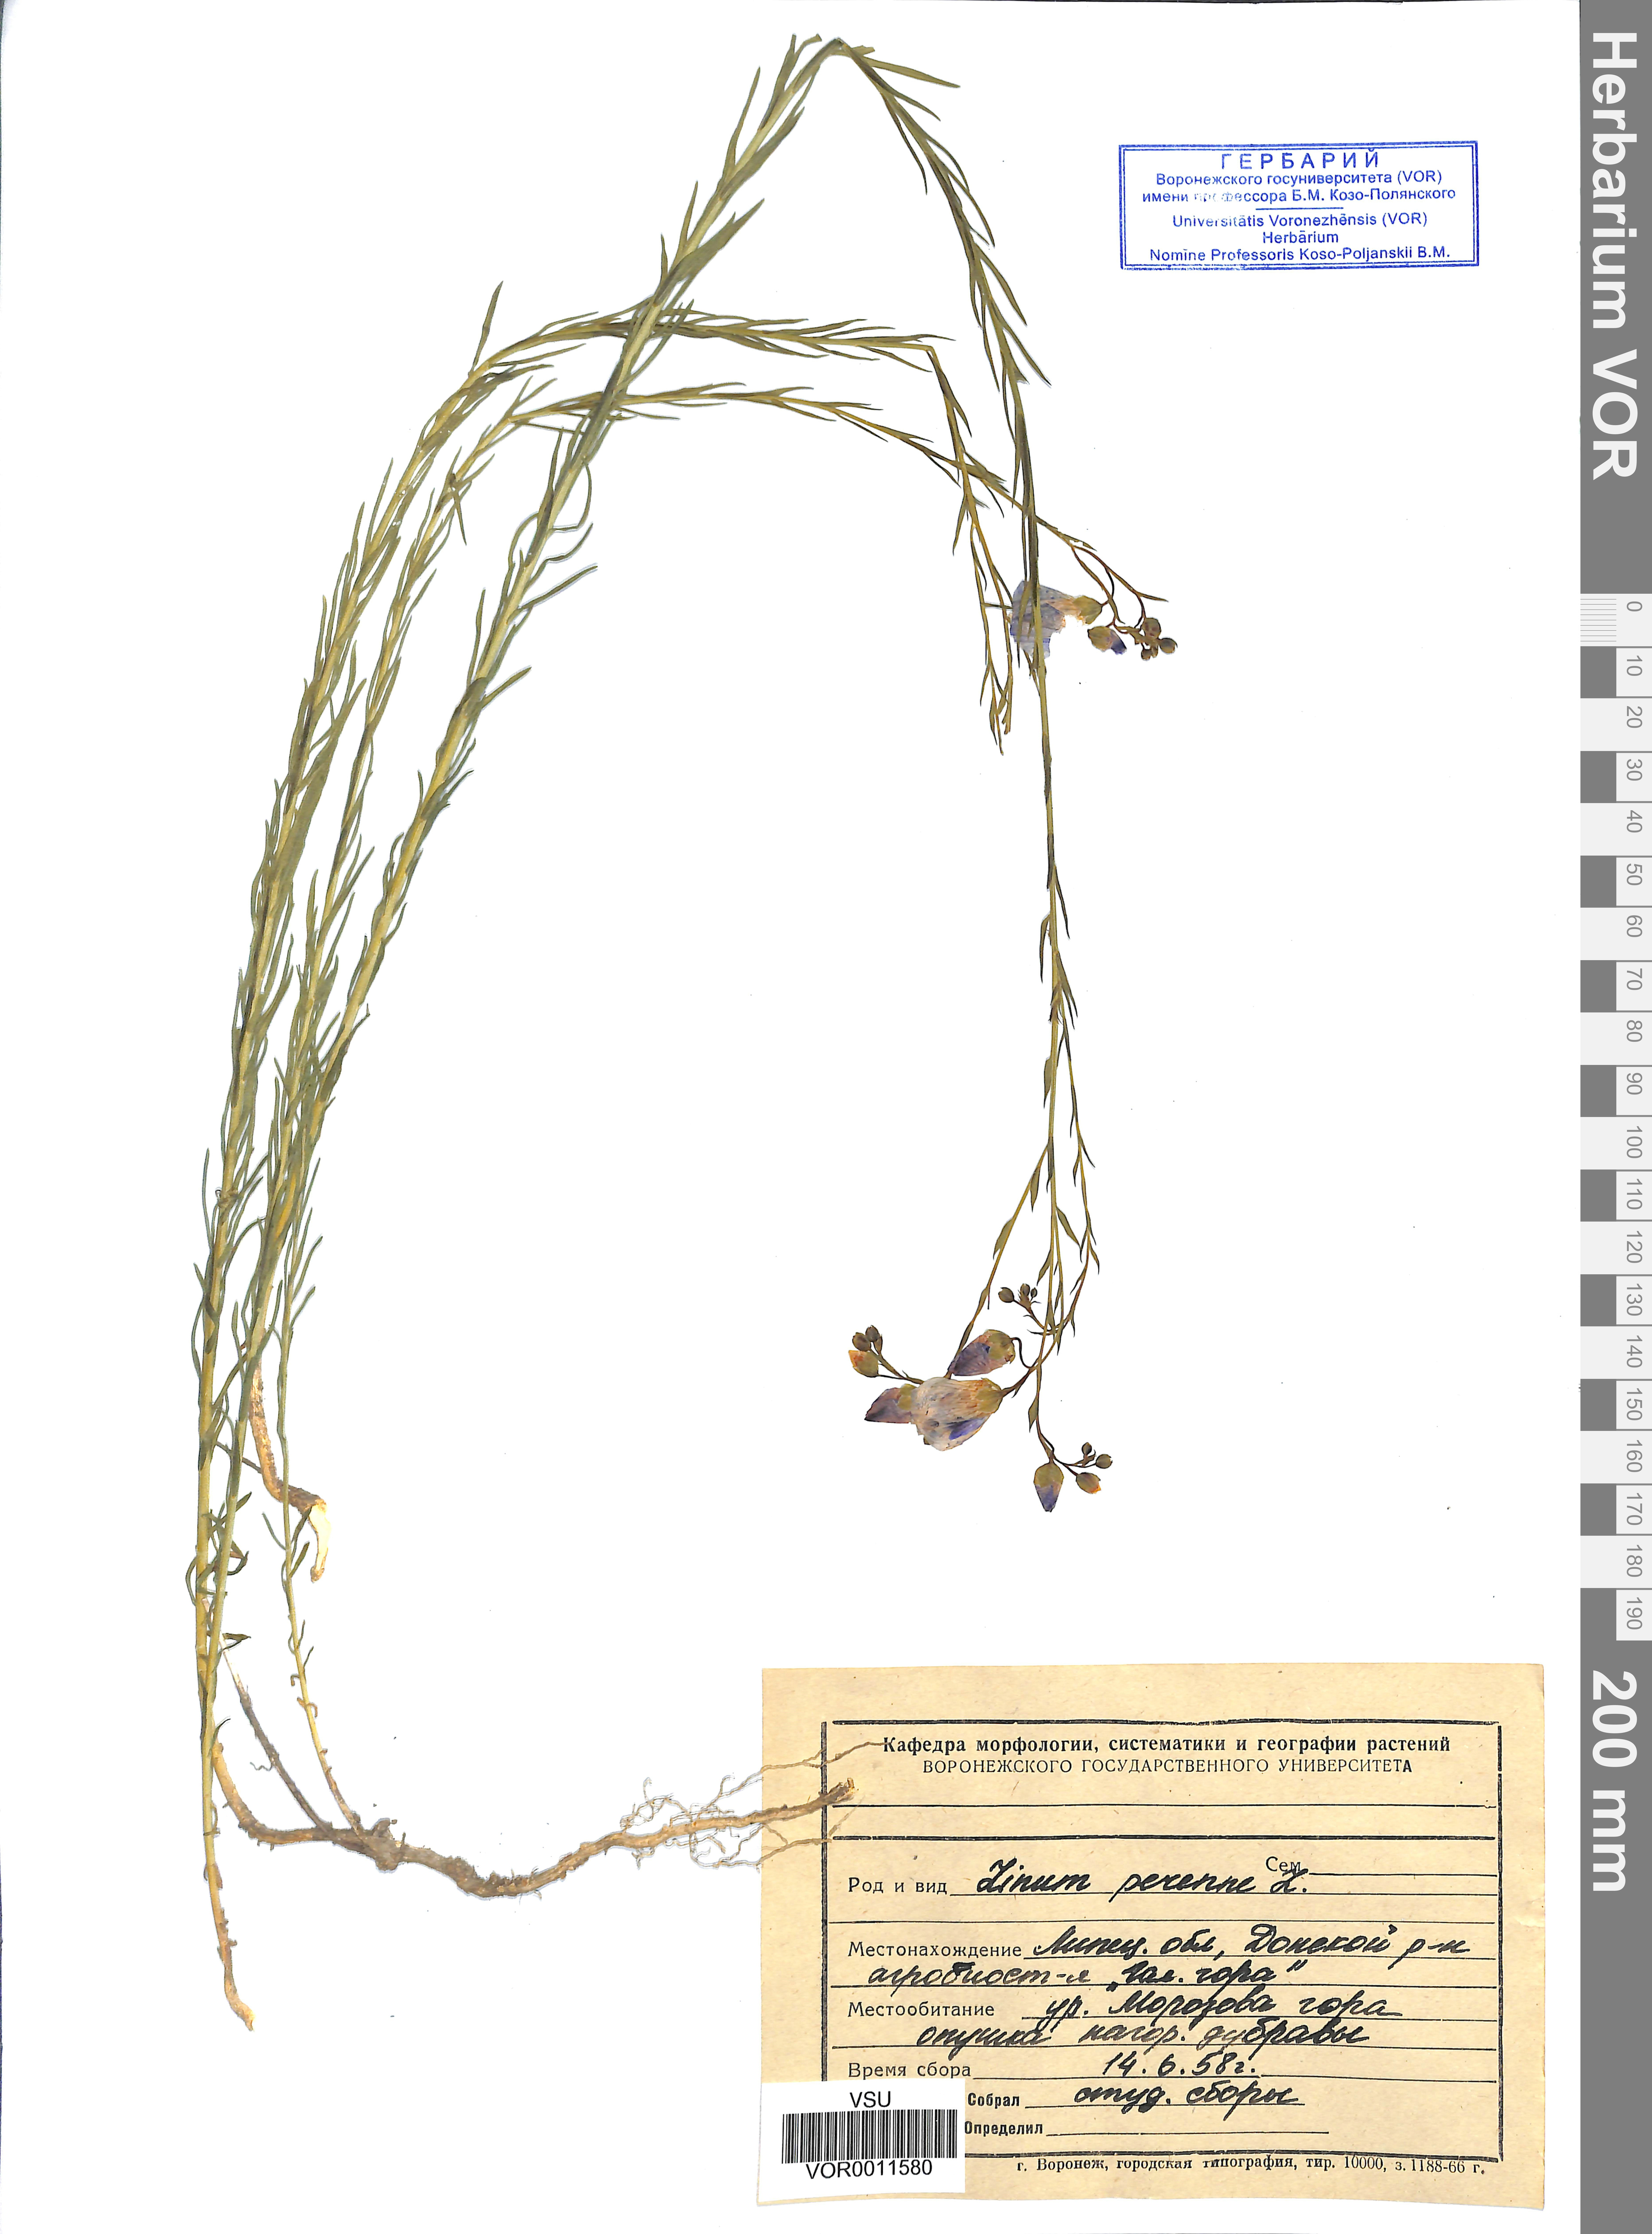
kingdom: Plantae
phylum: Tracheophyta
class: Magnoliopsida
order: Malpighiales
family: Linaceae
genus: Linum
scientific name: Linum perenne
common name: Blue flax
